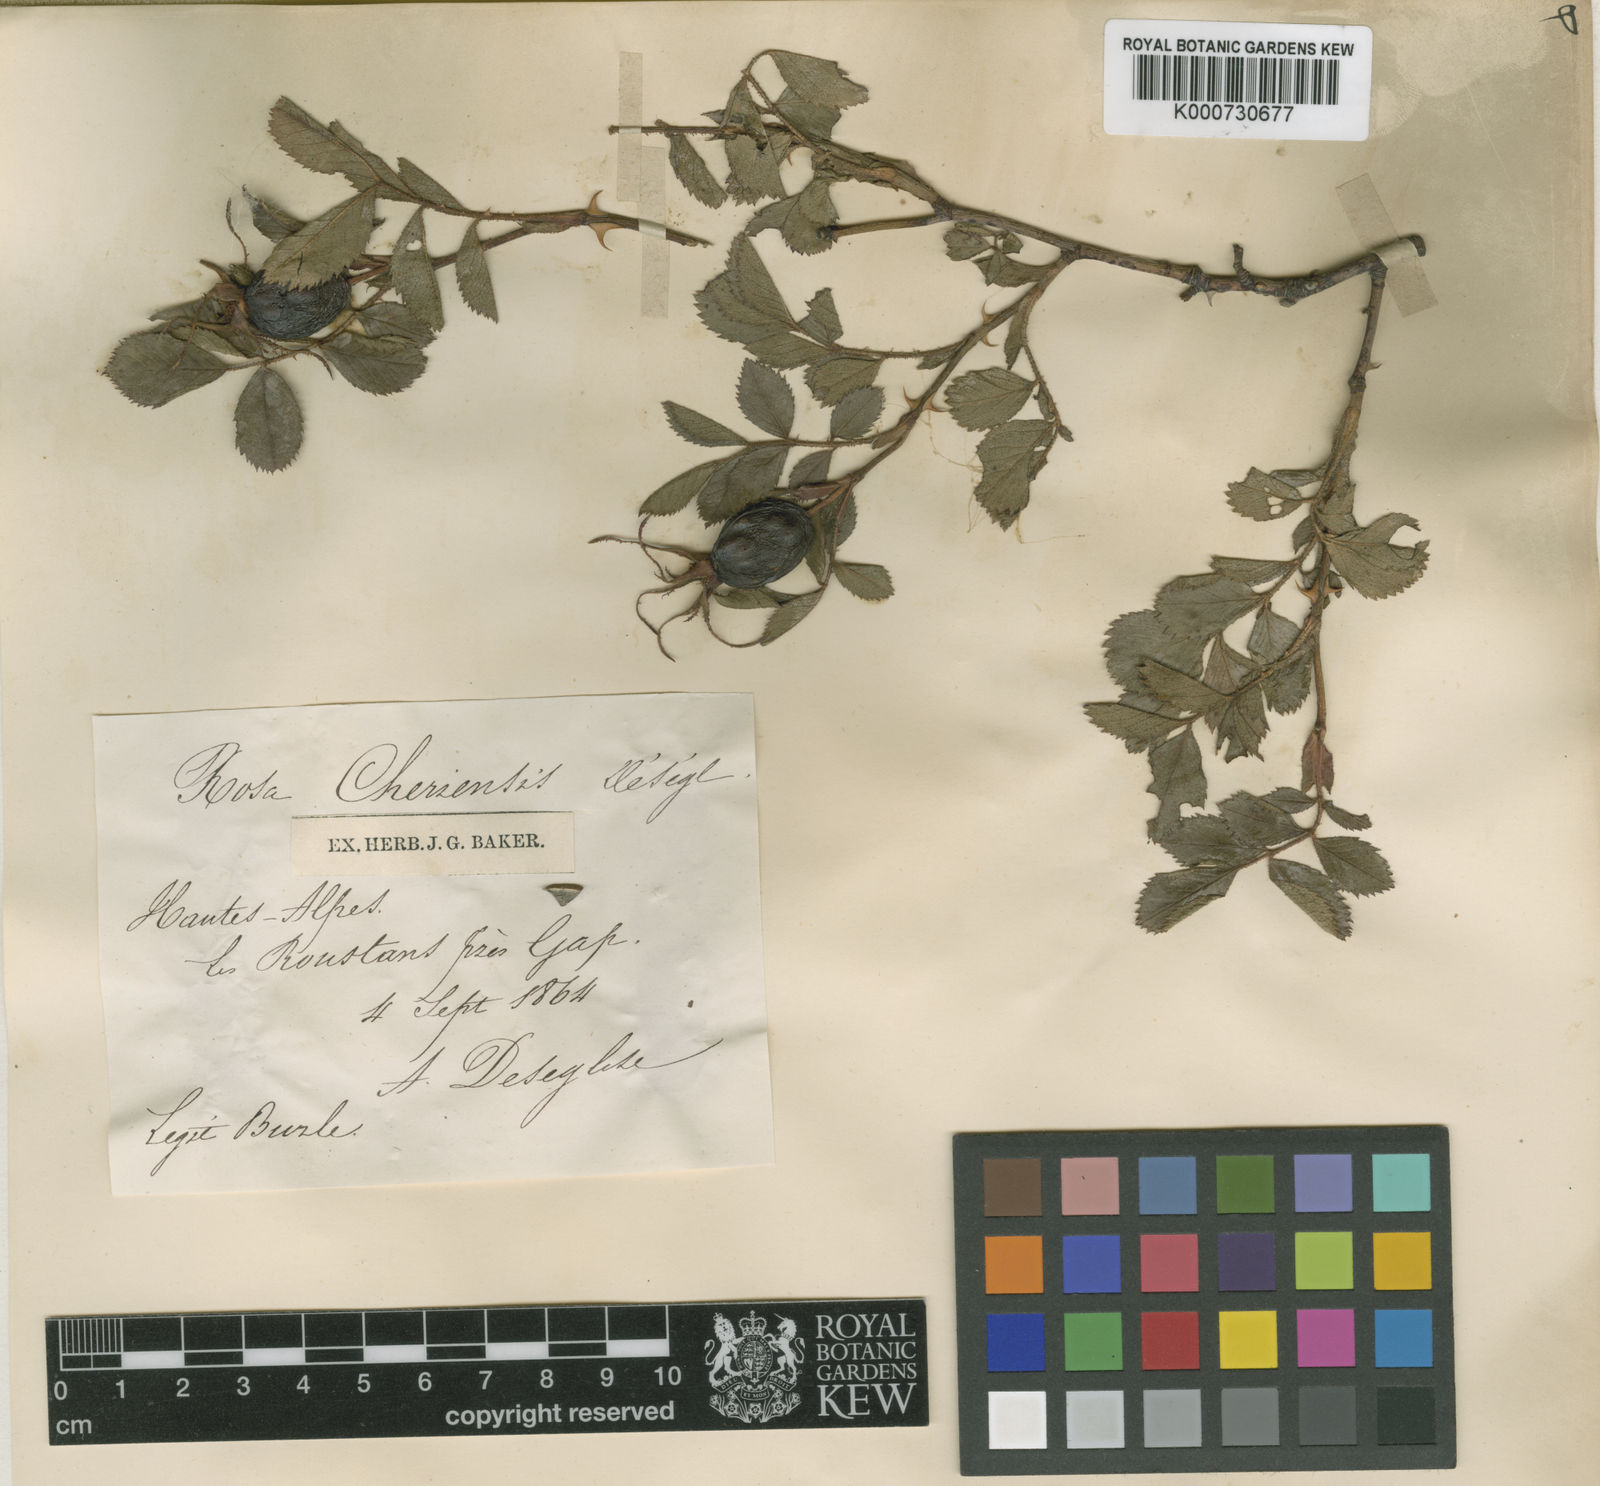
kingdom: Plantae
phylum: Tracheophyta
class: Magnoliopsida
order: Rosales
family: Rosaceae
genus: Rosa
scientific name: Rosa agrestis
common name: Fieldbriar
